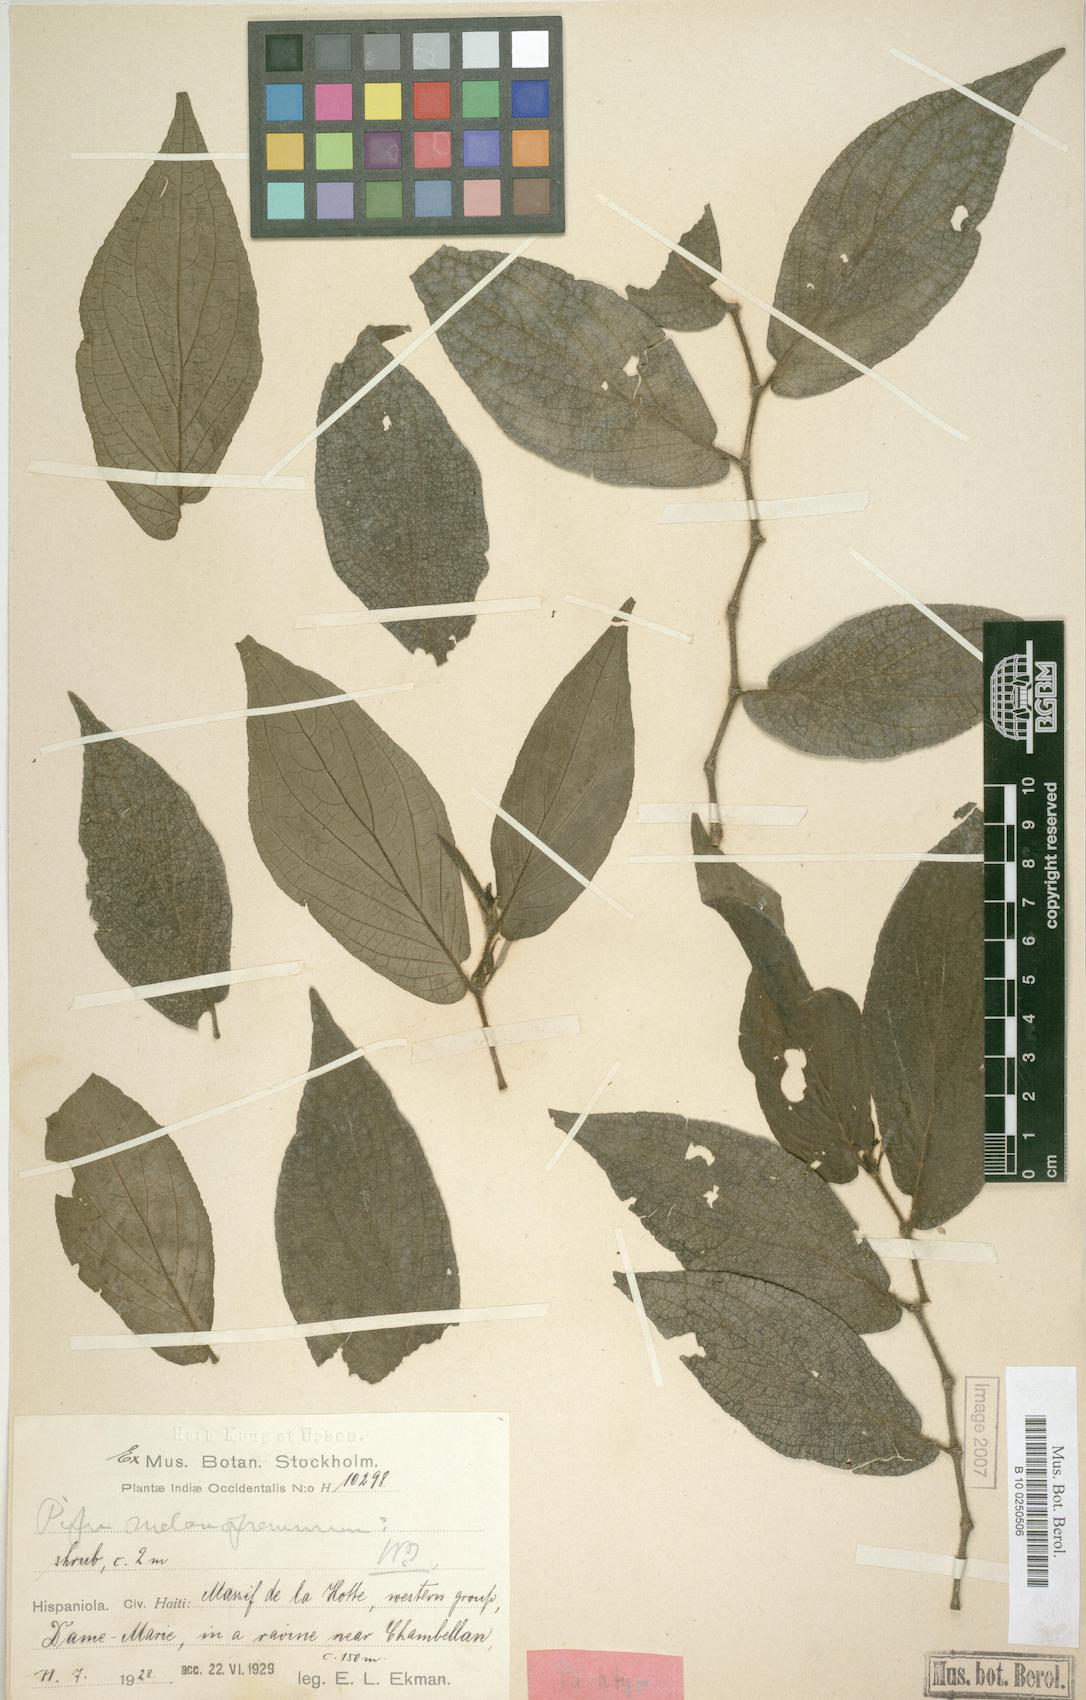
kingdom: Plantae
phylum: Tracheophyta
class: Magnoliopsida
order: Piperales
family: Piperaceae
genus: Piper
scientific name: Piper melanopremnum
